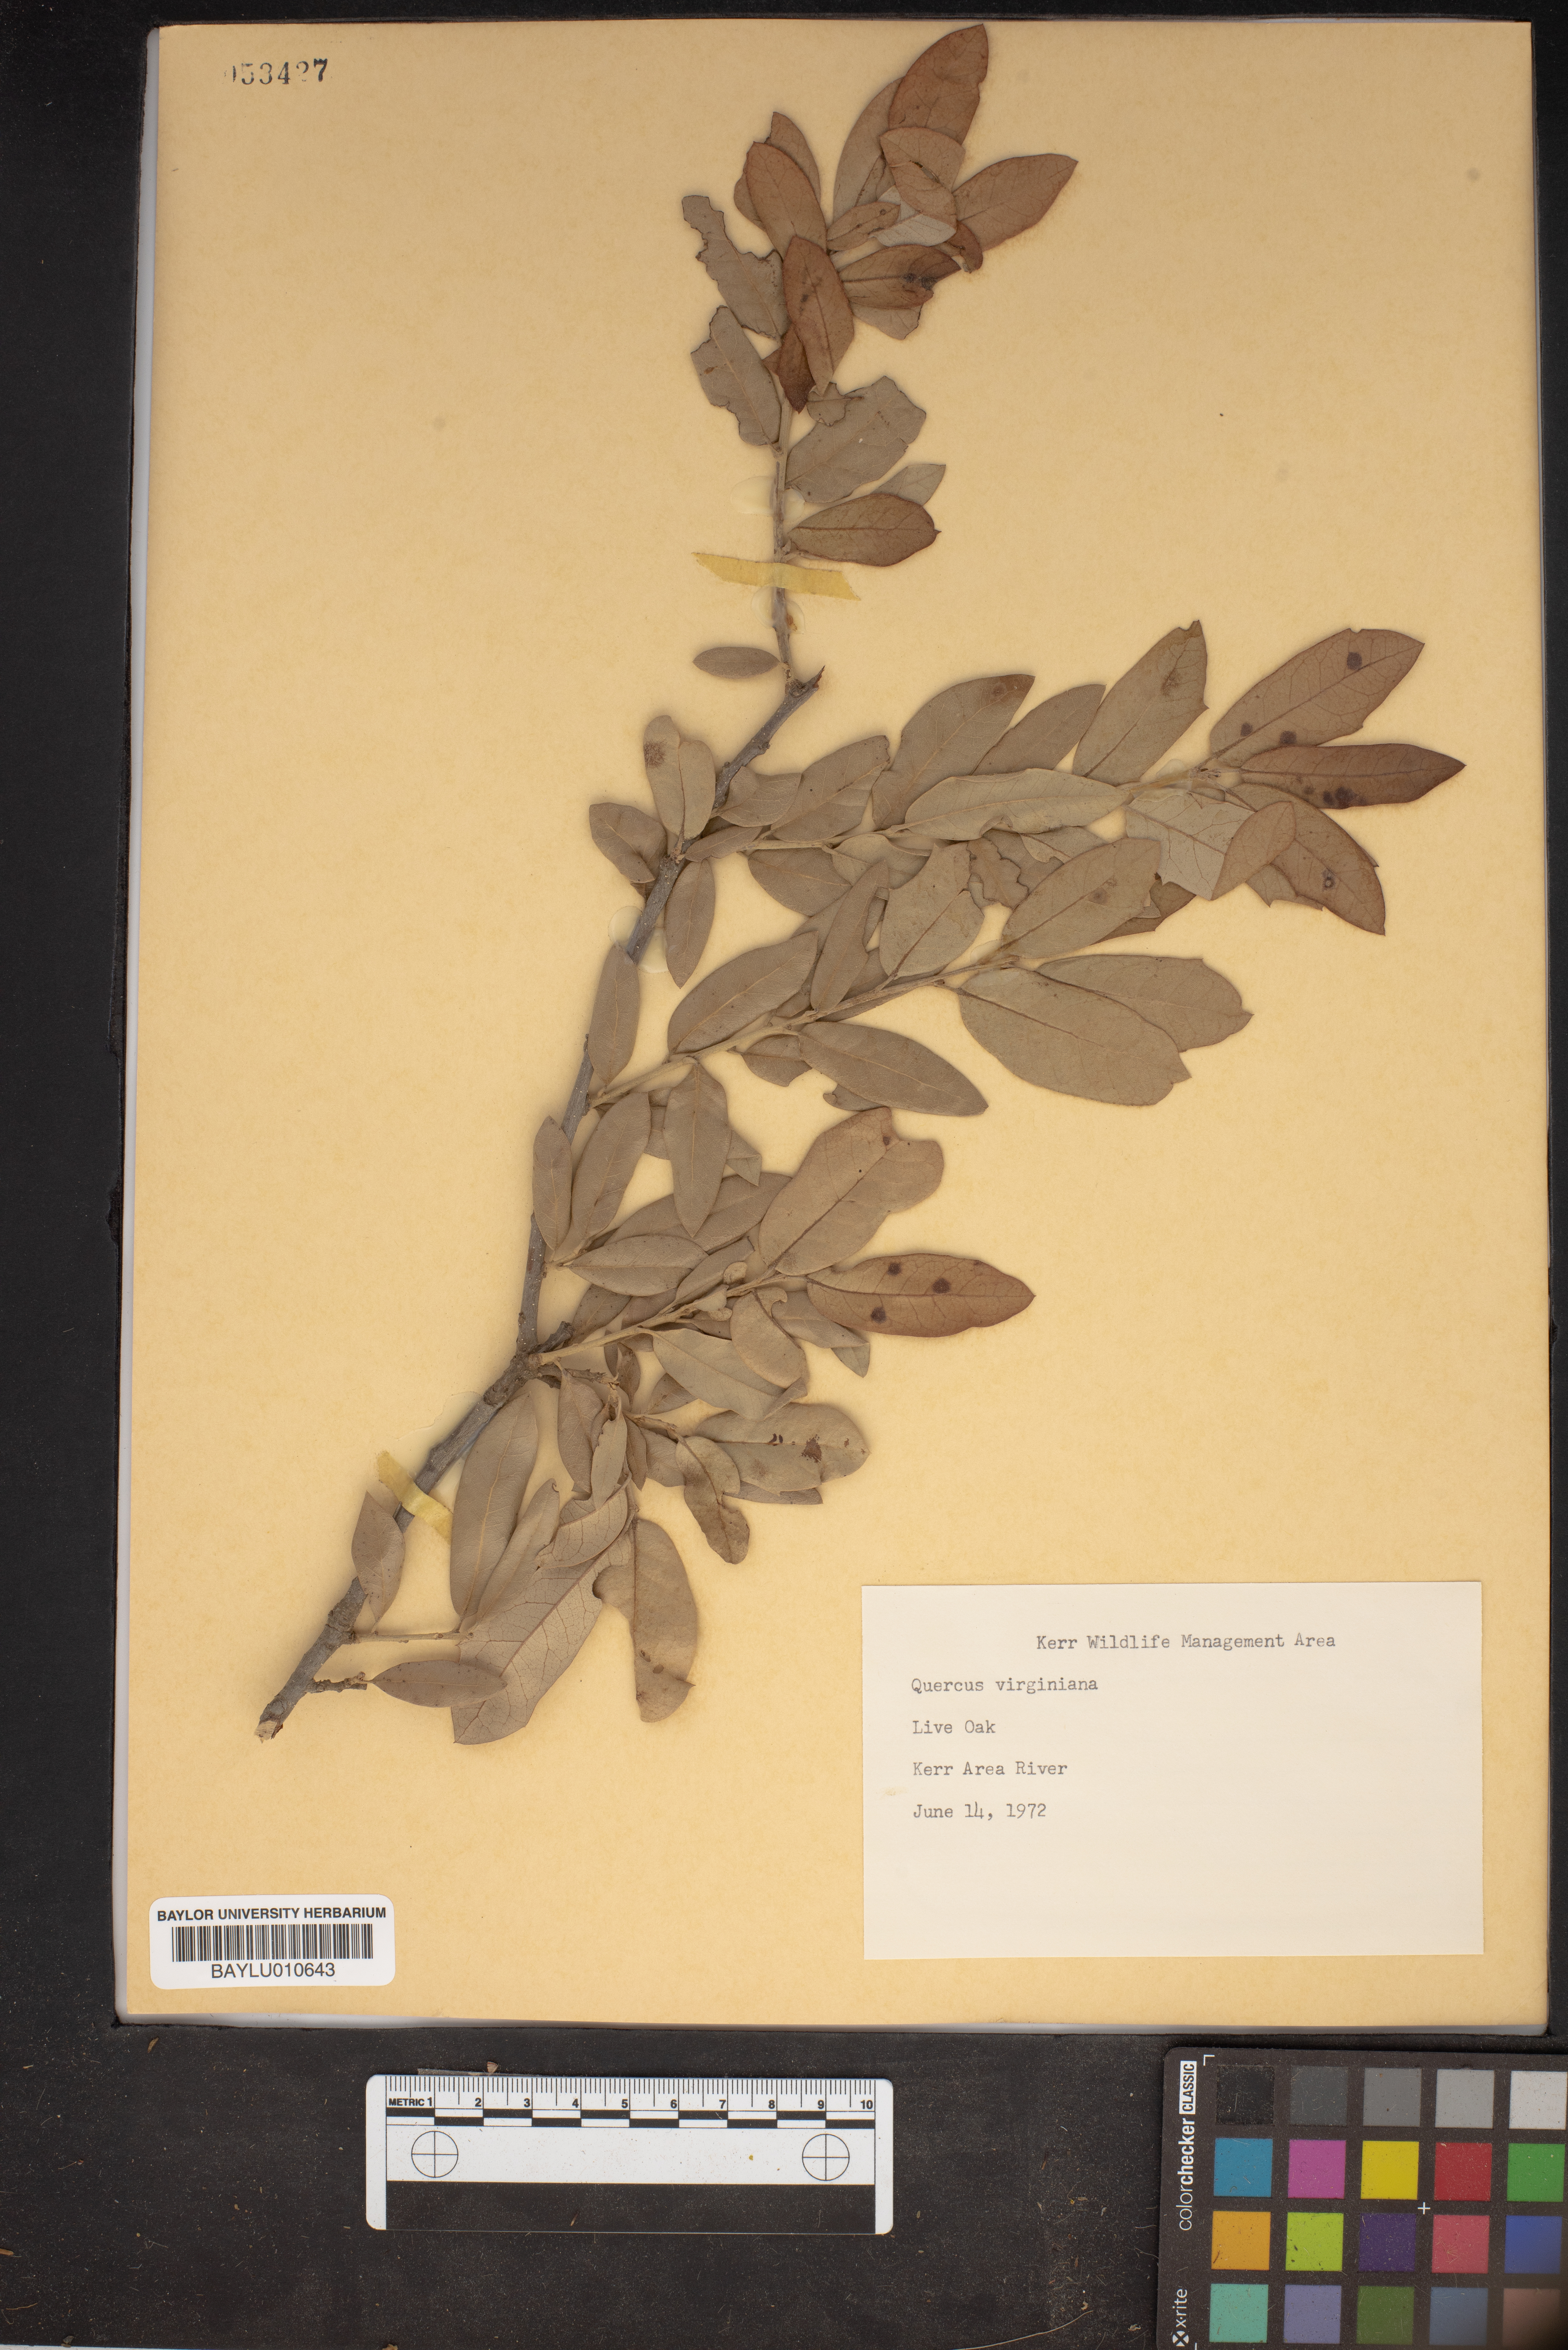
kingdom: Plantae
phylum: Tracheophyta
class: Magnoliopsida
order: Fagales
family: Fagaceae
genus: Quercus
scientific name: Quercus virginiana
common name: Southern live oak
